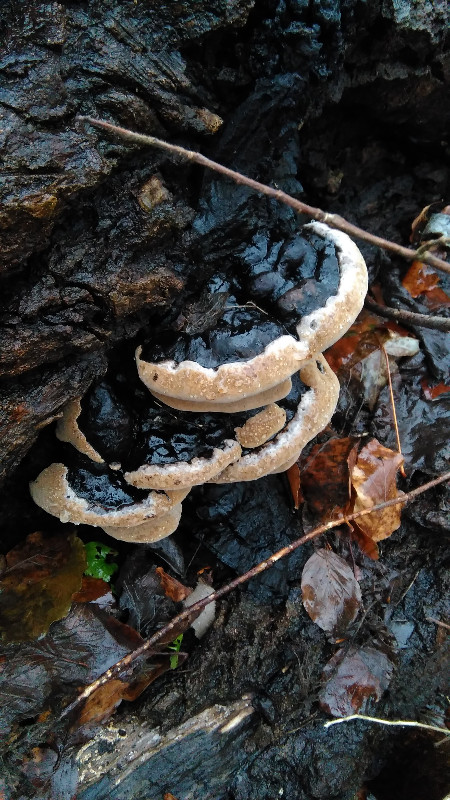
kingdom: Fungi
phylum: Basidiomycota
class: Agaricomycetes
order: Hymenochaetales
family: Hymenochaetaceae
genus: Phellinus
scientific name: Phellinus populicola
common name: poppel-ildporesvamp
